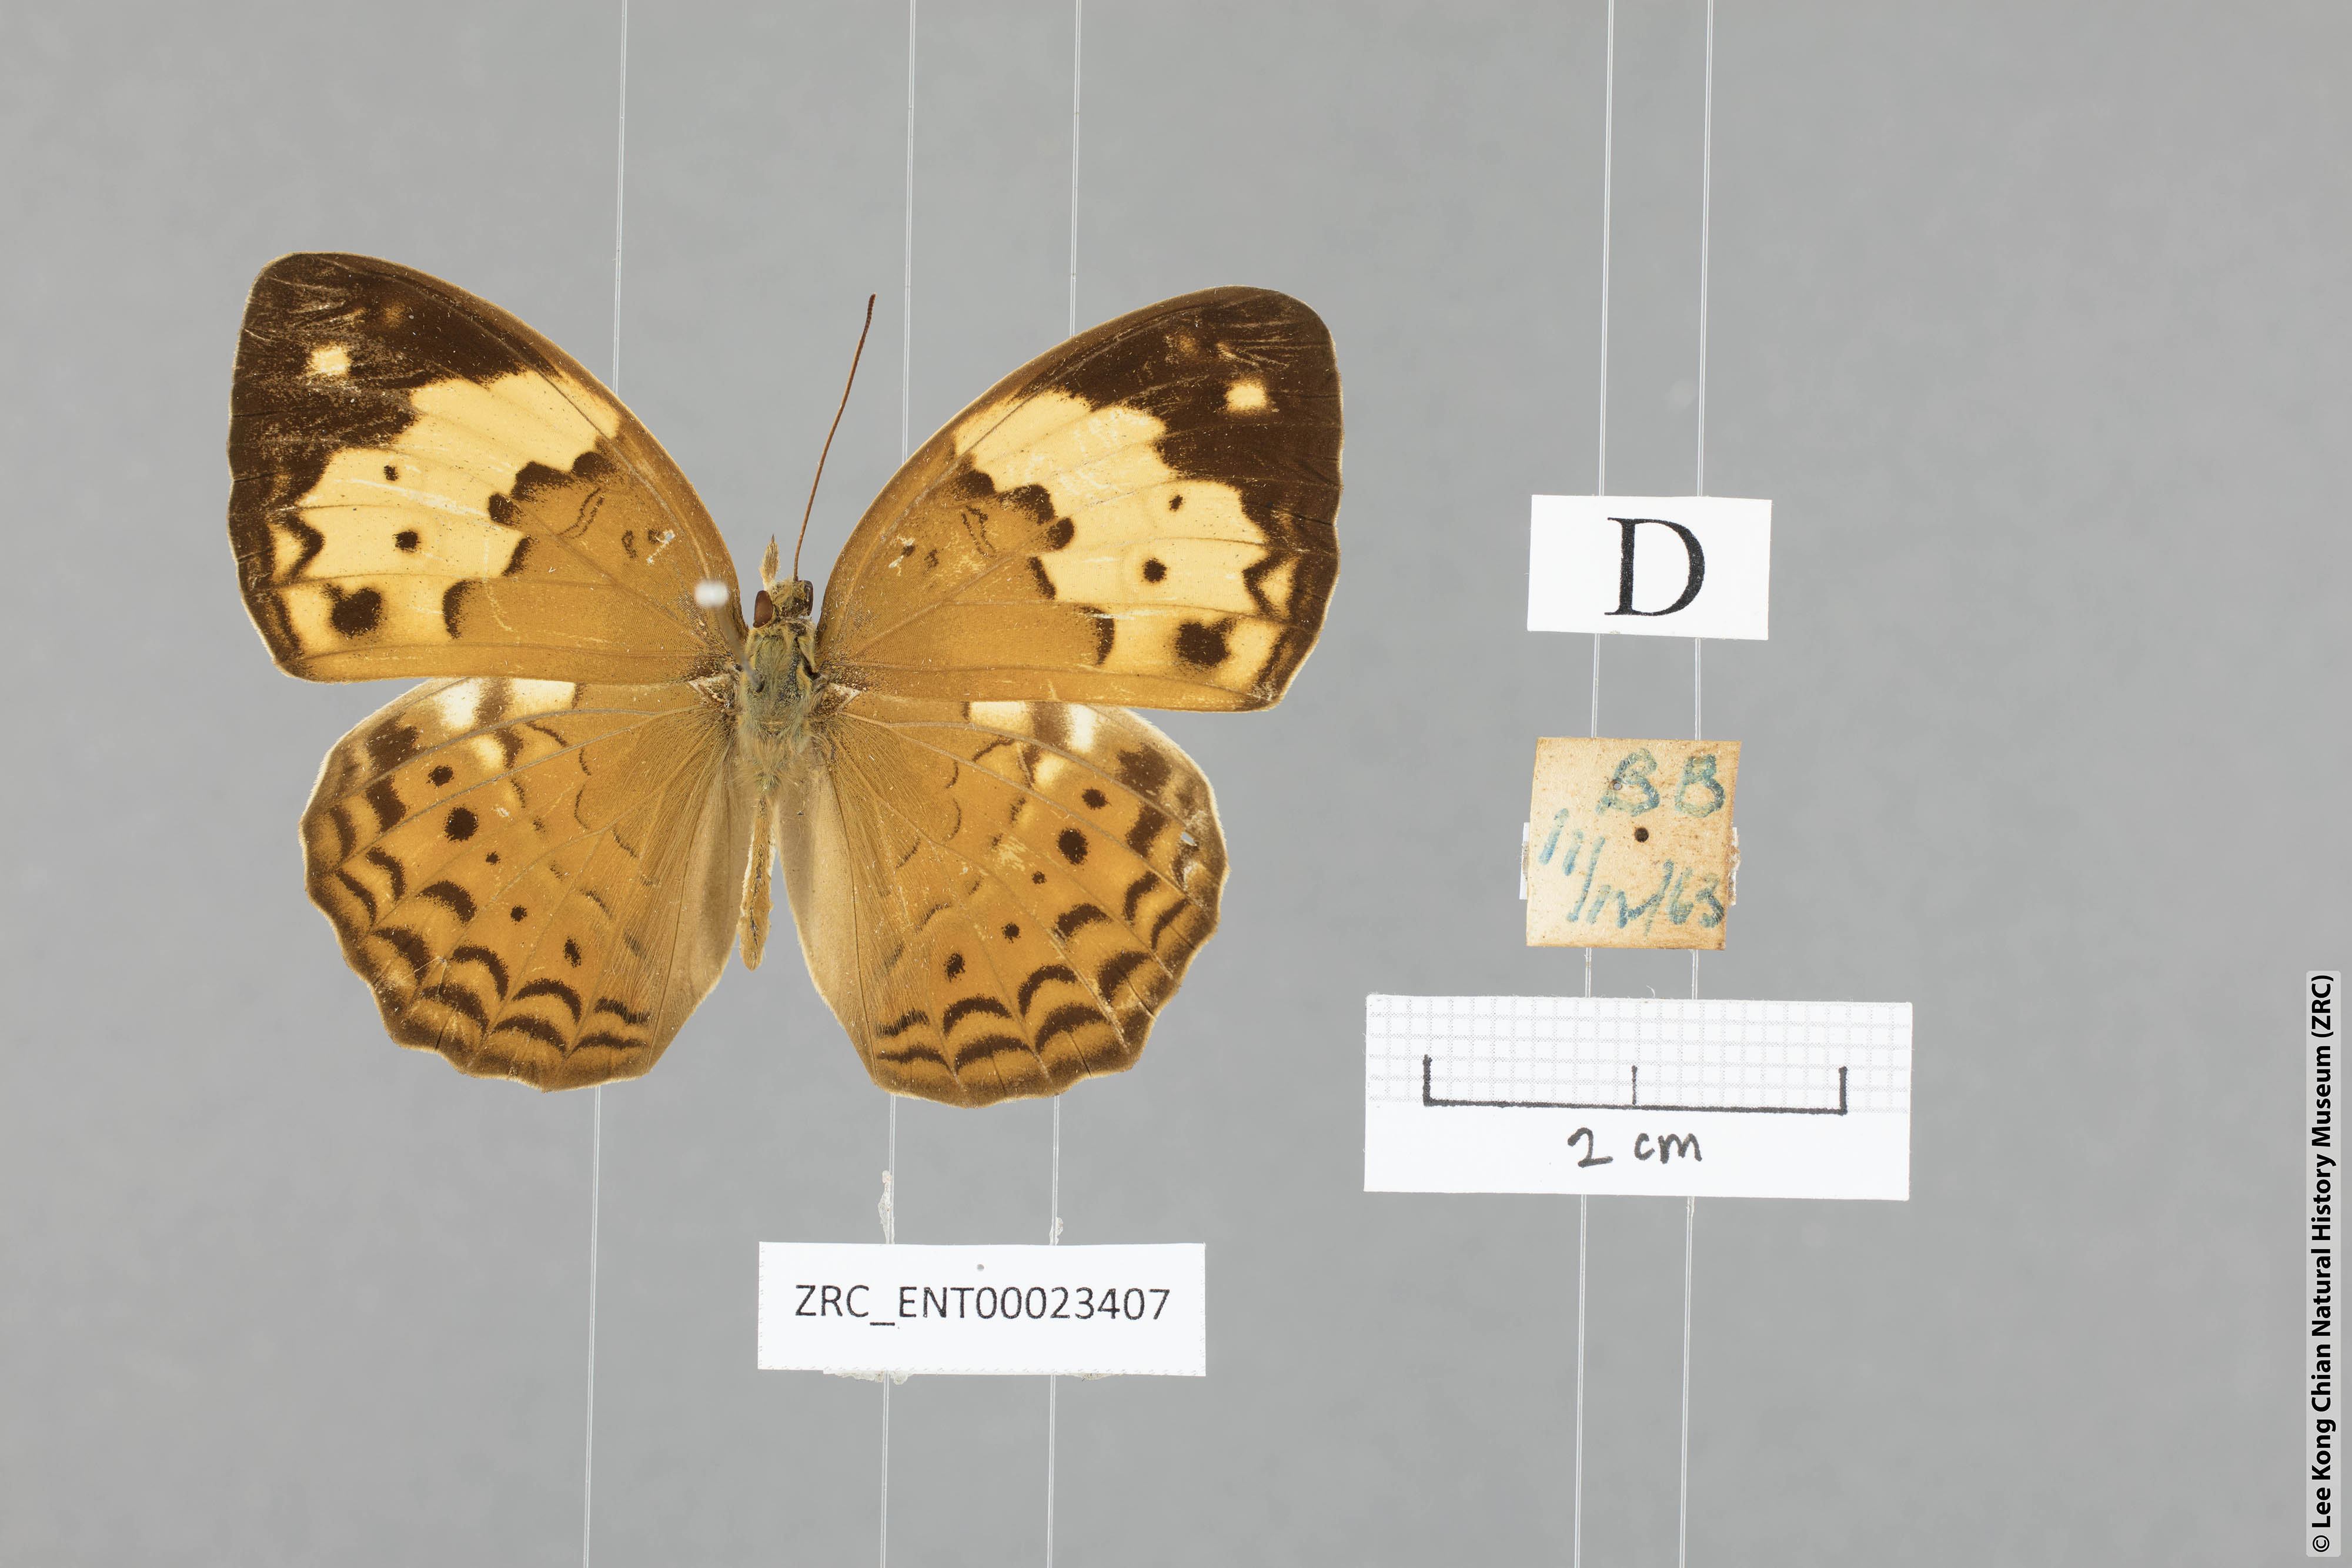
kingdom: Animalia
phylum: Arthropoda
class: Insecta
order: Lepidoptera
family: Nymphalidae
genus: Cupha
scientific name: Cupha erymanthis
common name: Rustic
